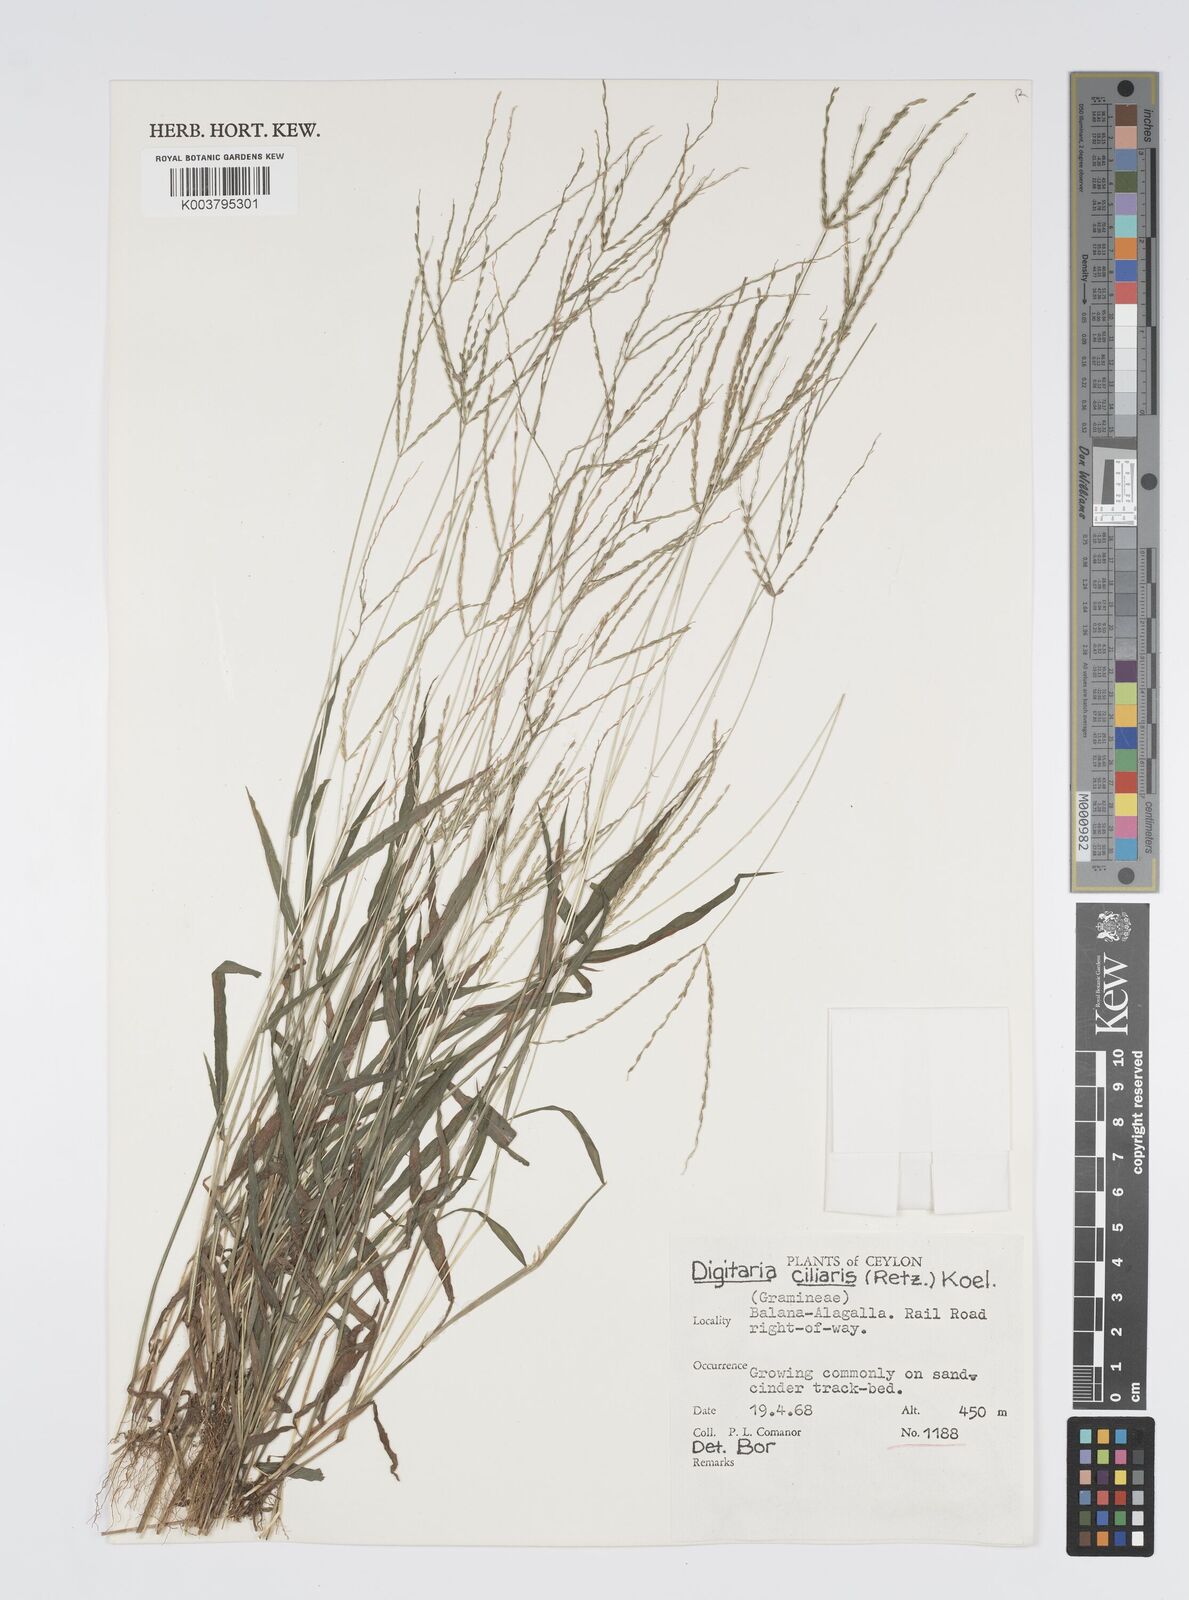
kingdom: Plantae
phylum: Tracheophyta
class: Liliopsida
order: Poales
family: Poaceae
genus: Digitaria
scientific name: Digitaria ciliaris
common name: Tropical finger-grass
